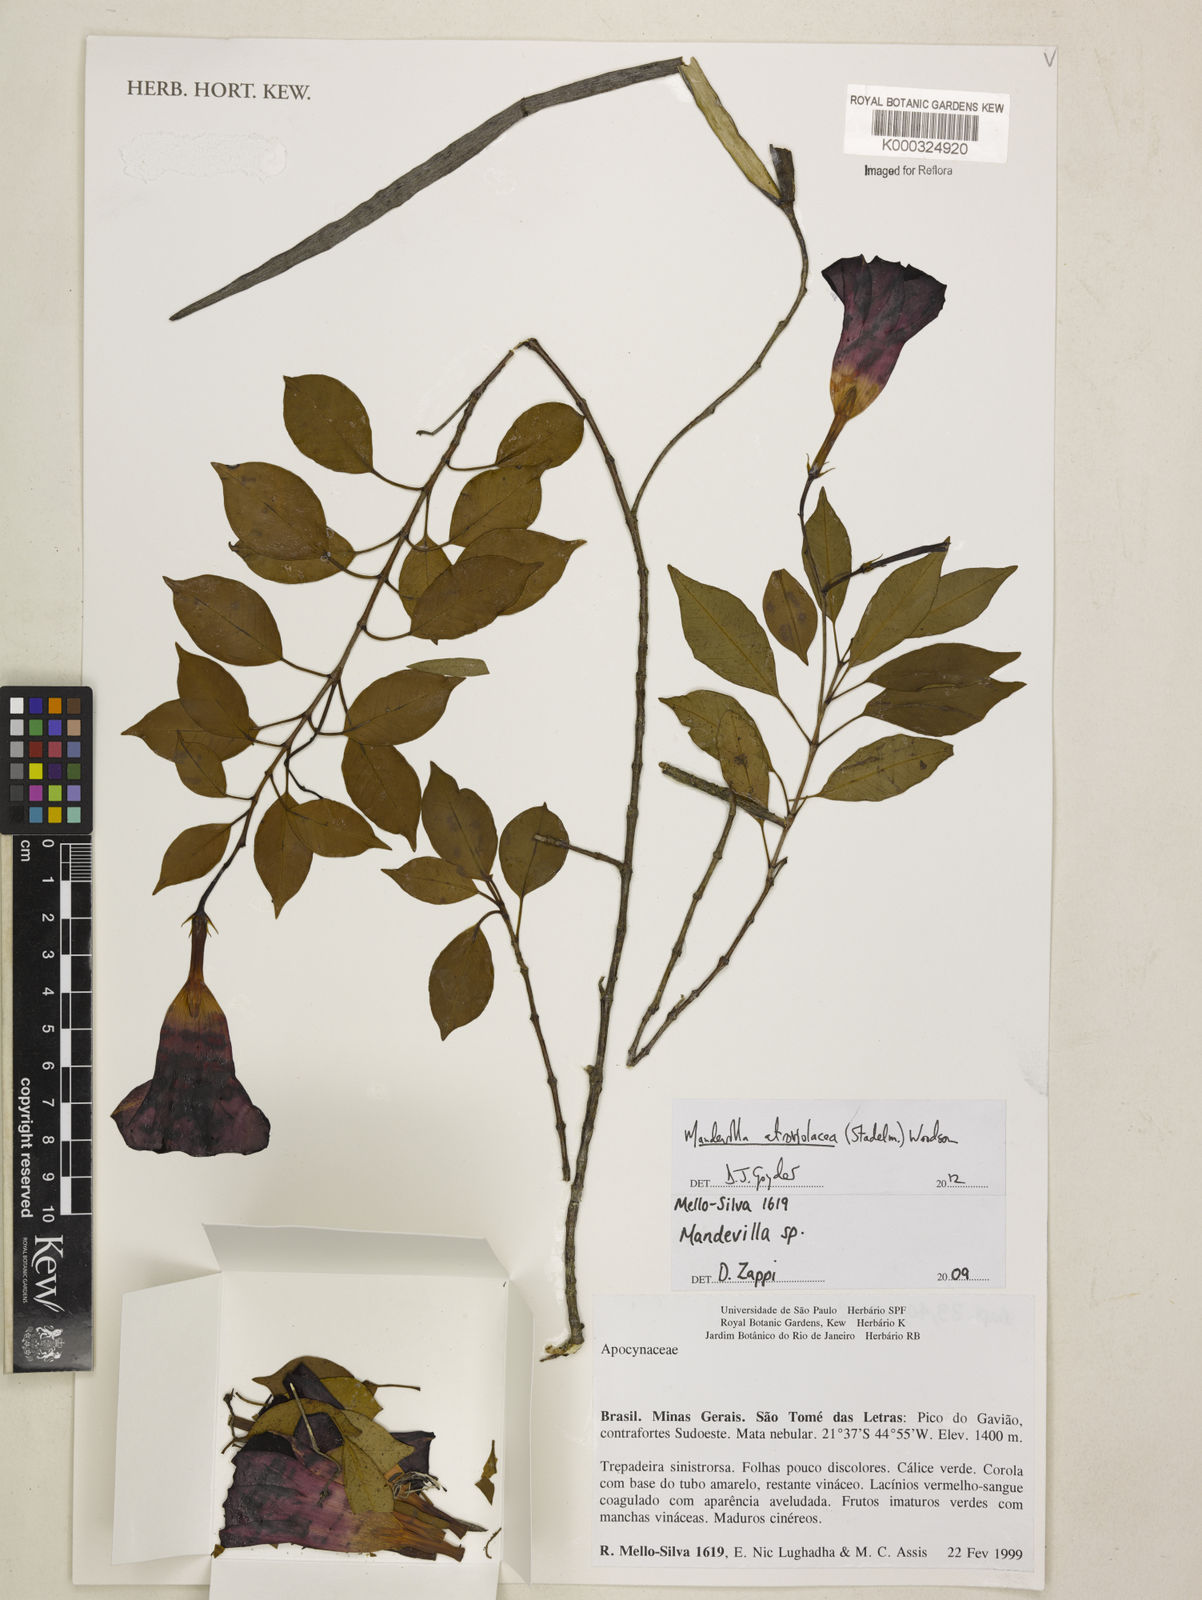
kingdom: Plantae
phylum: Tracheophyta
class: Magnoliopsida
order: Gentianales
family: Apocynaceae
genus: Mandevilla
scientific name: Mandevilla atroviolacea
